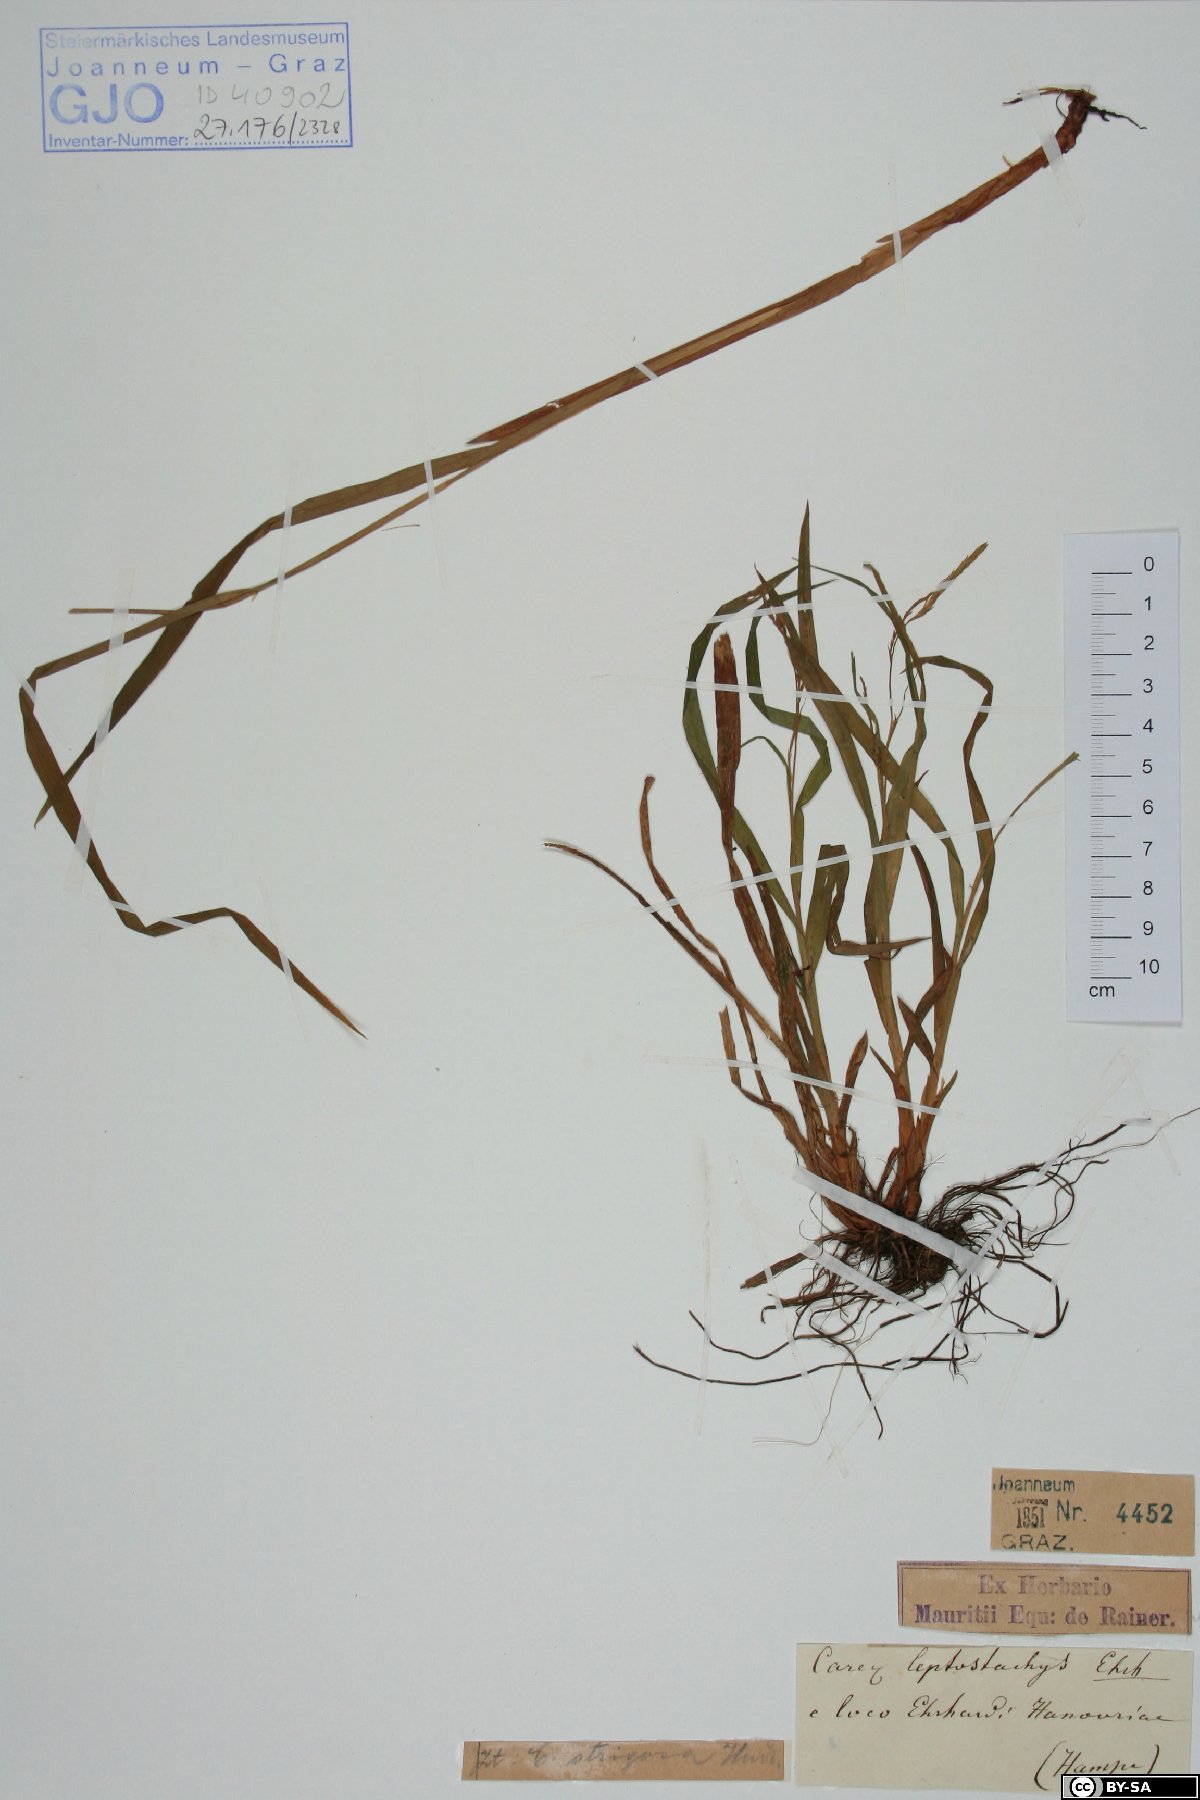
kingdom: Plantae
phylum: Tracheophyta
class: Liliopsida
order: Poales
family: Cyperaceae
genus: Carex
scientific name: Carex strigosa
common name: Thin-spiked wood-sedge
